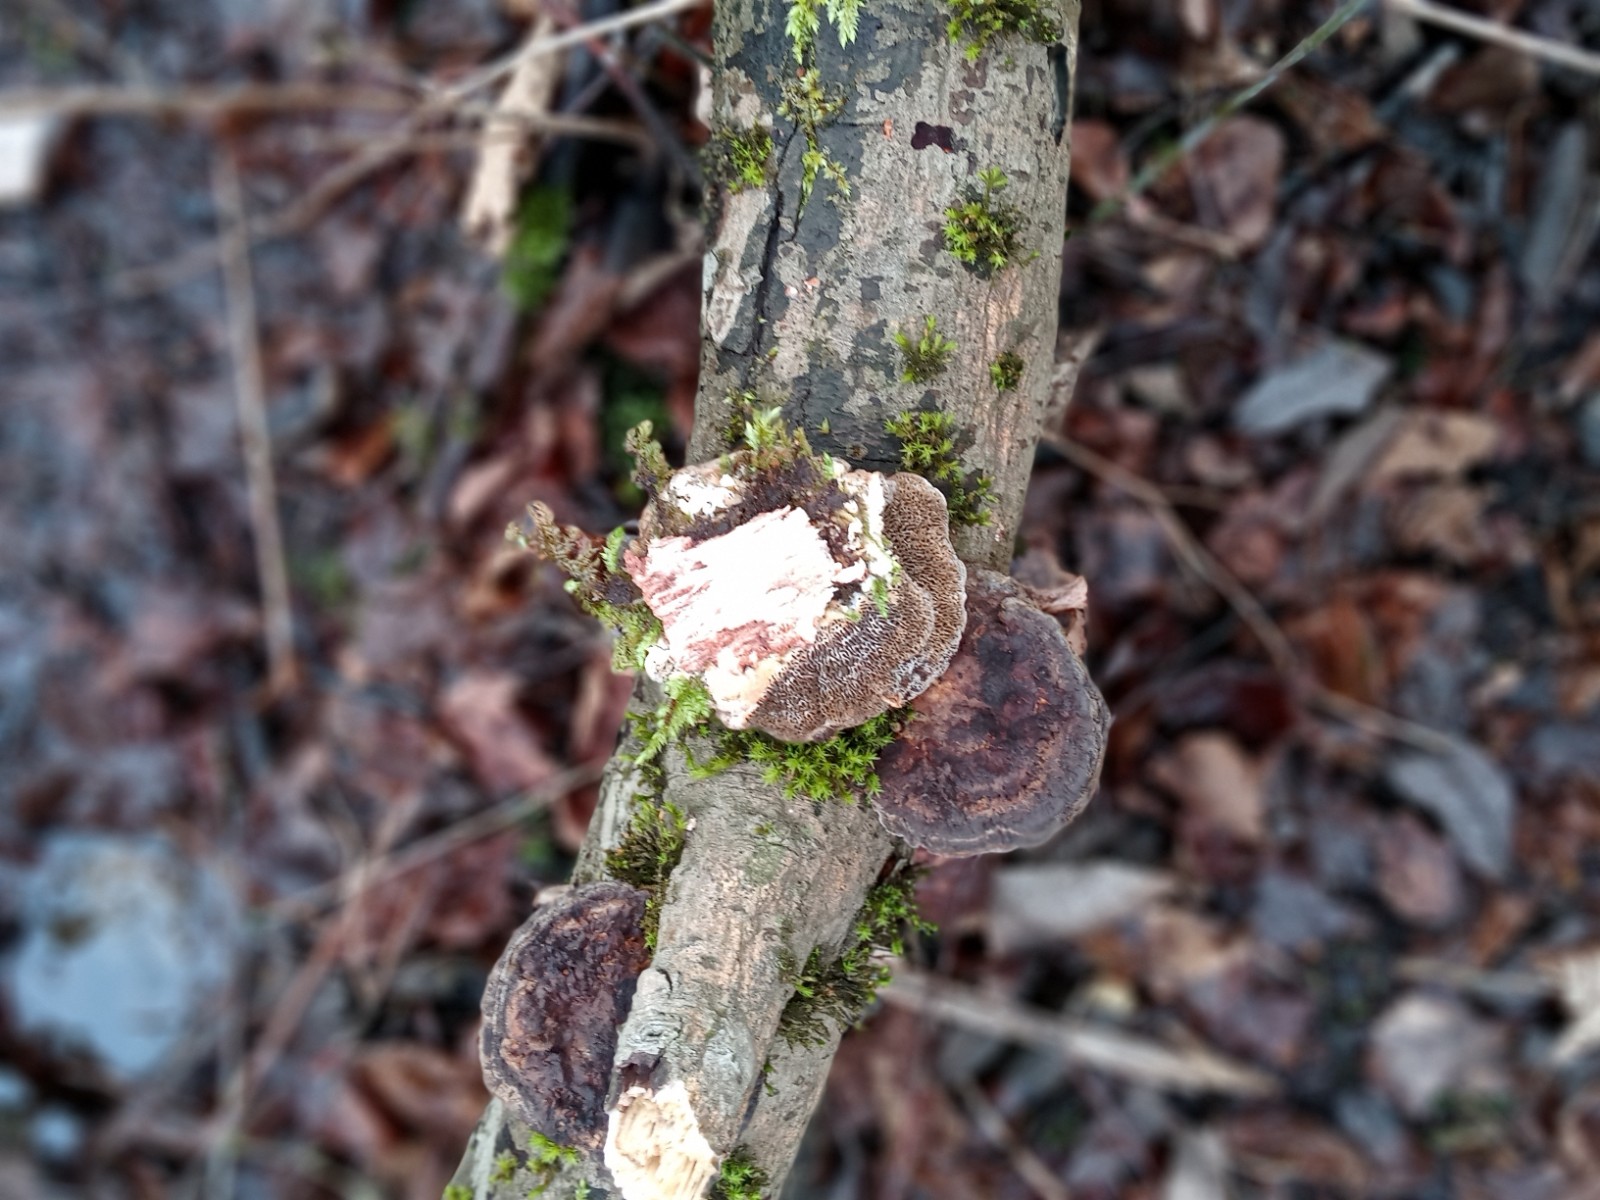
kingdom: Fungi
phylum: Basidiomycota
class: Agaricomycetes
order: Polyporales
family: Polyporaceae
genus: Daedaleopsis
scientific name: Daedaleopsis confragosa
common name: rødmende læderporesvamp
